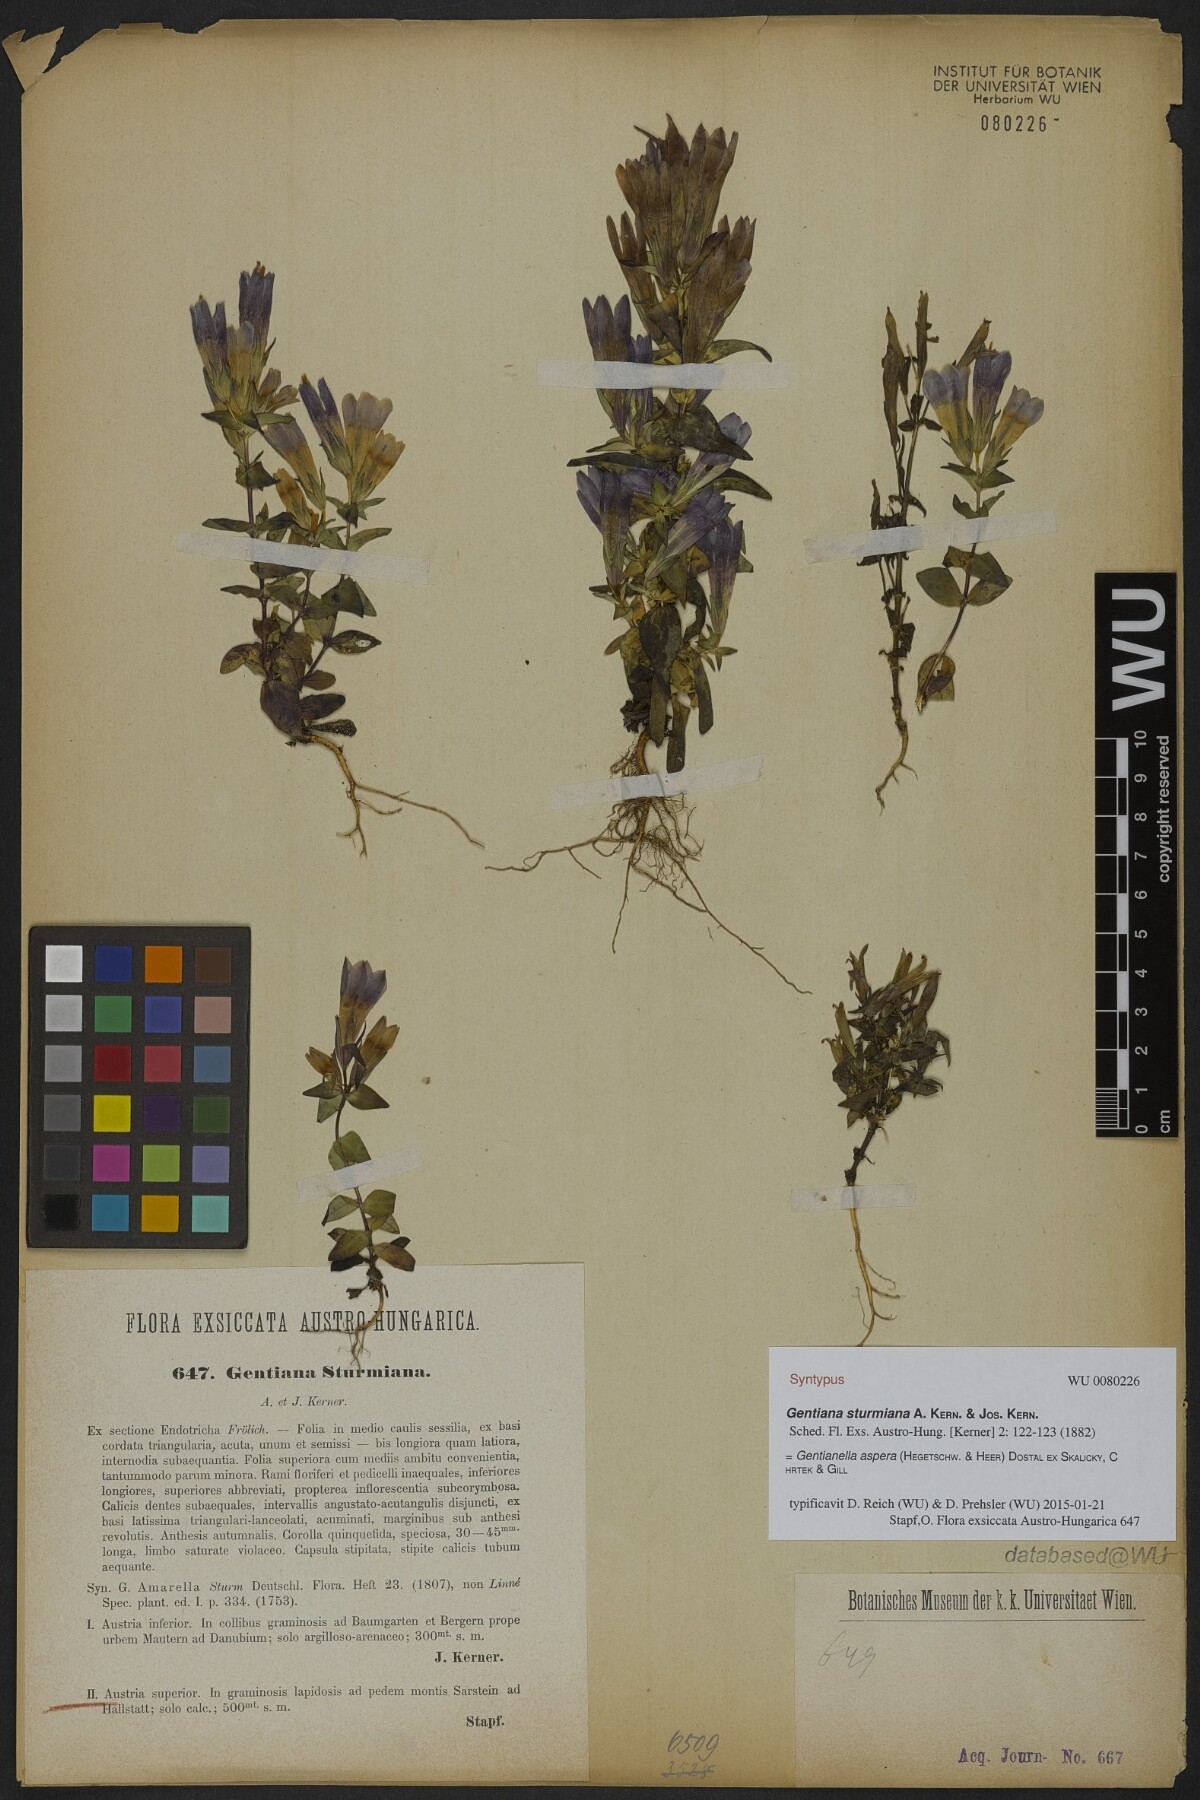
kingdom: Plantae
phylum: Tracheophyta
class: Magnoliopsida
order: Gentianales
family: Gentianaceae
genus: Gentianella
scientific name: Gentianella obtusifolia
